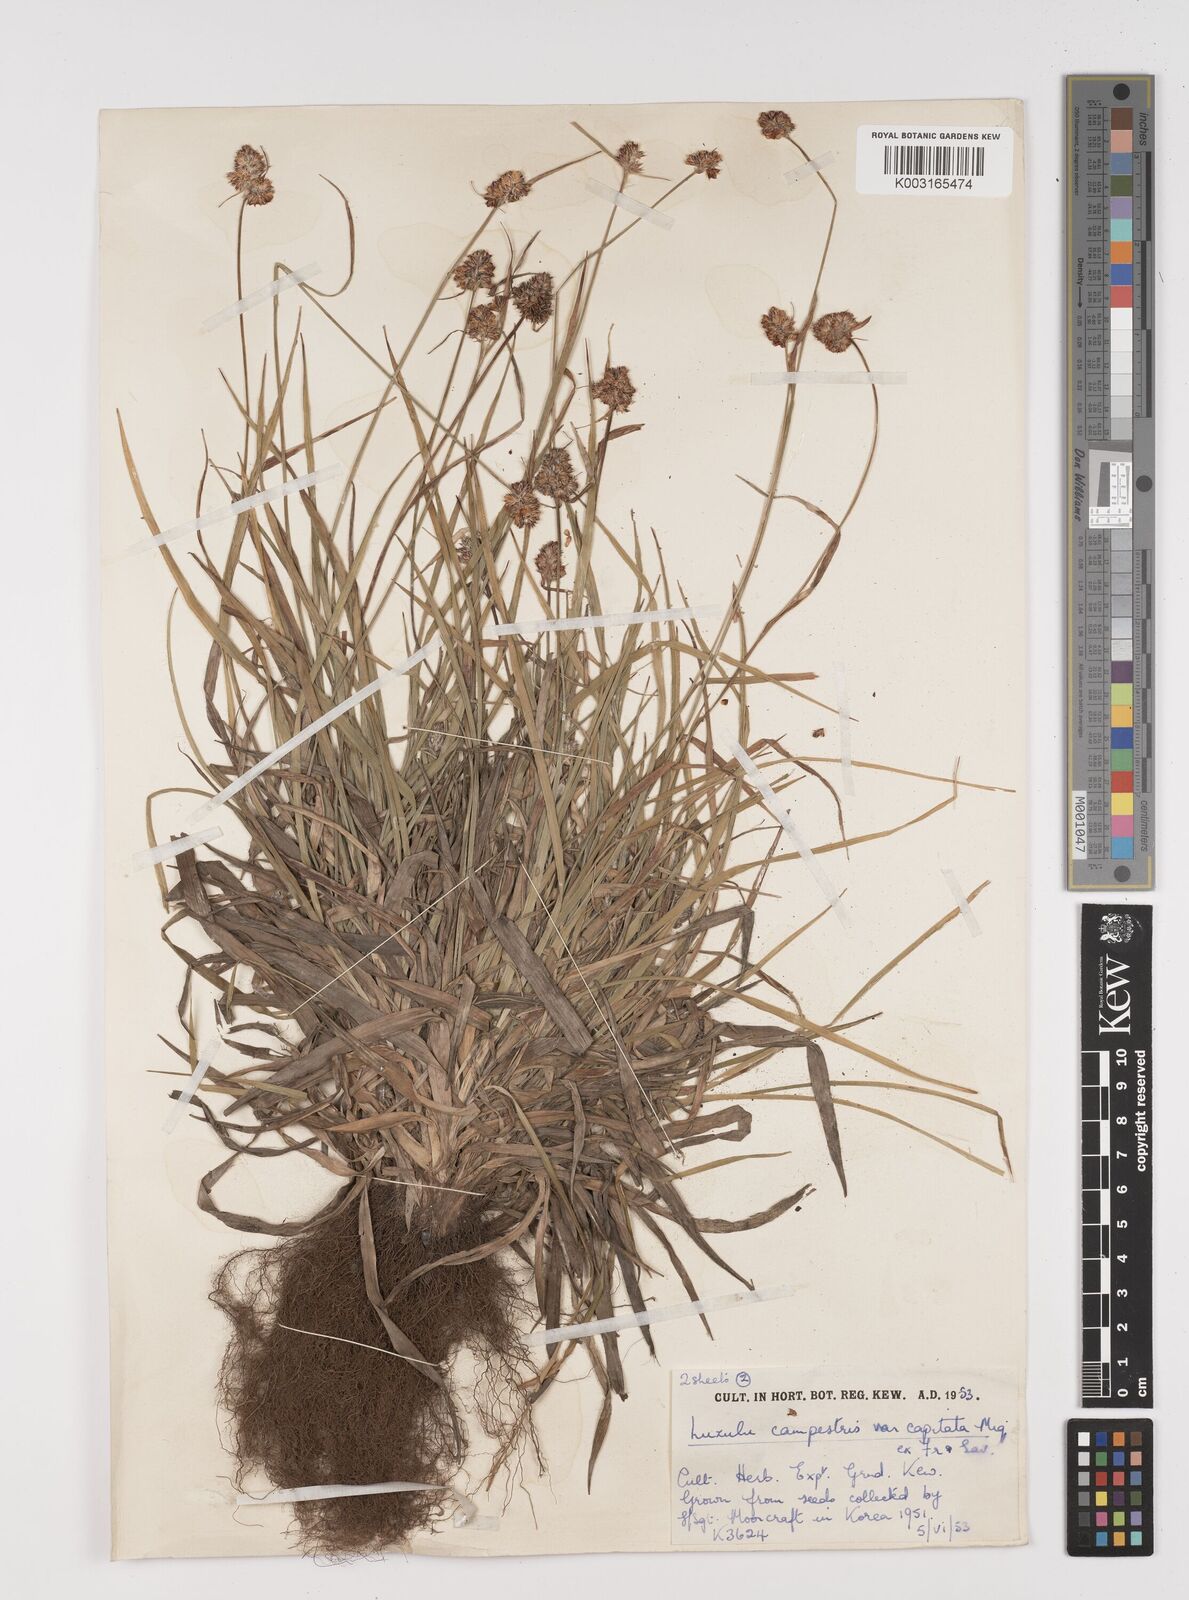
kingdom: Plantae
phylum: Tracheophyta
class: Liliopsida
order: Poales
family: Juncaceae
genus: Luzula
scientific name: Luzula campestris
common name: Field wood-rush
